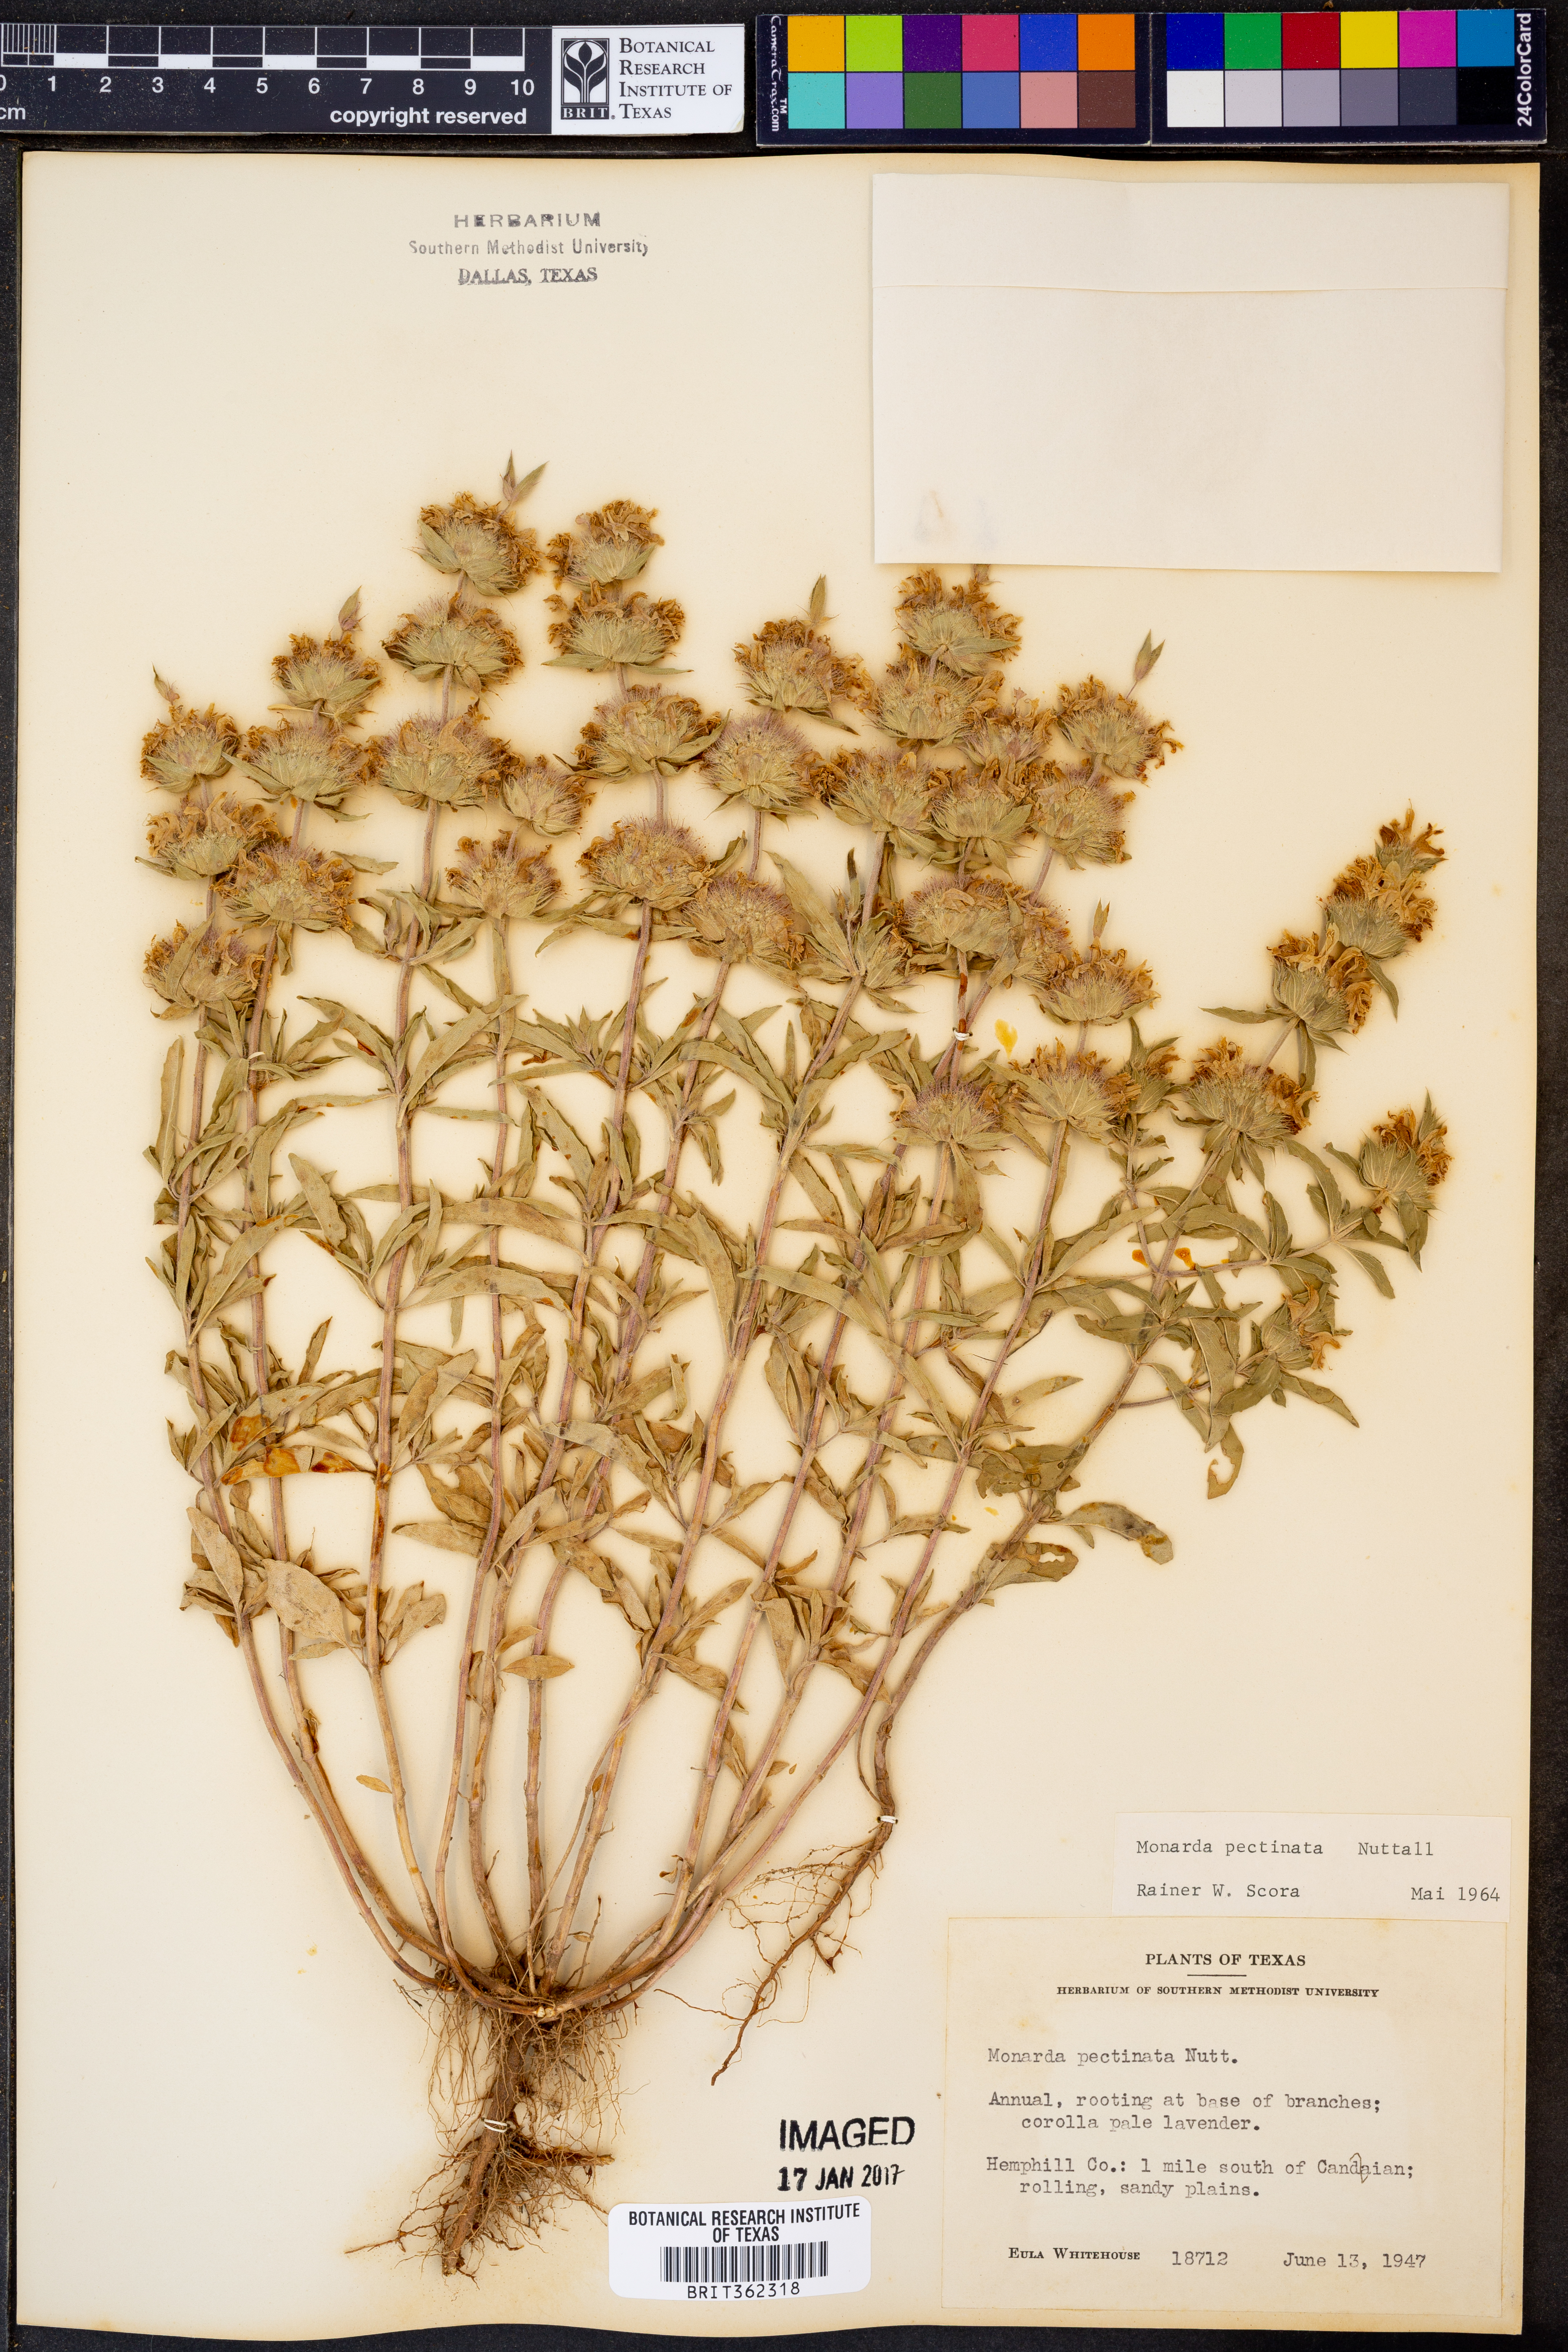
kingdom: Plantae
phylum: Tracheophyta
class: Magnoliopsida
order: Lamiales
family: Lamiaceae
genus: Monarda
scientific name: Monarda pectinata
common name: Plains beebalm
